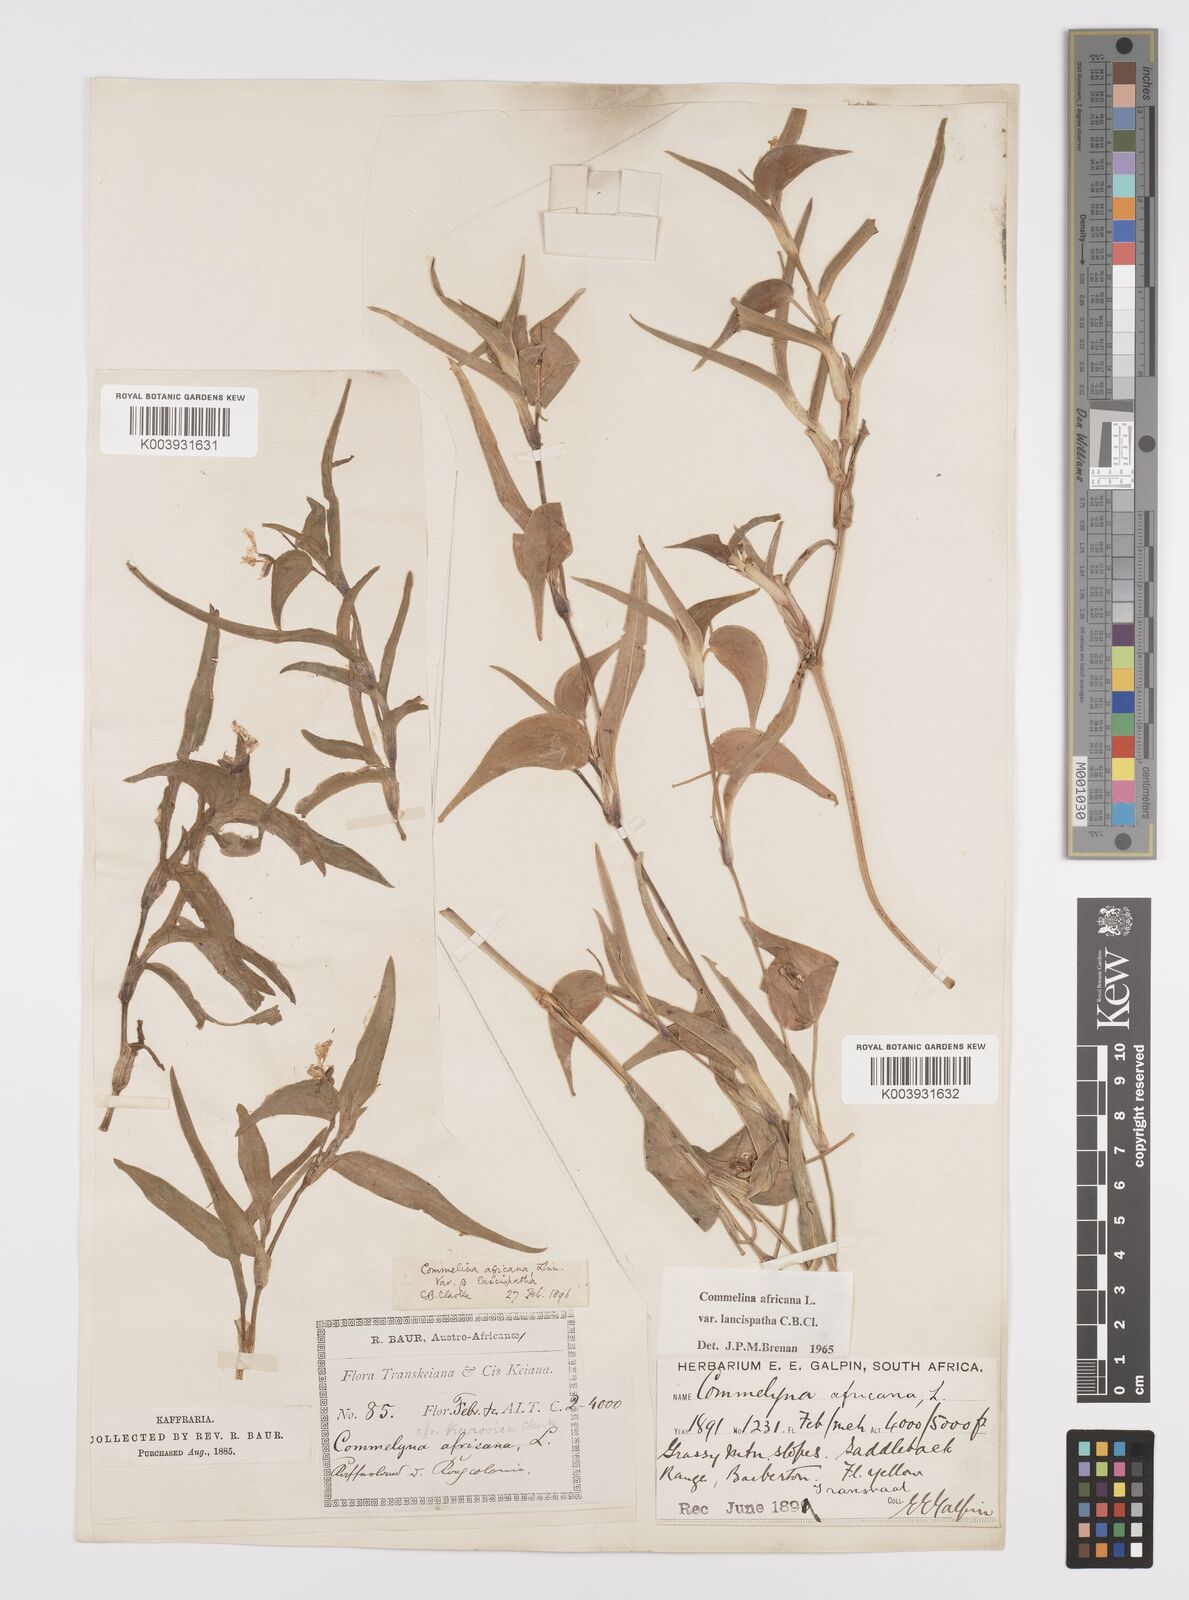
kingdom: Plantae
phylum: Tracheophyta
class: Liliopsida
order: Commelinales
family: Commelinaceae
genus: Commelina
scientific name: Commelina africana
